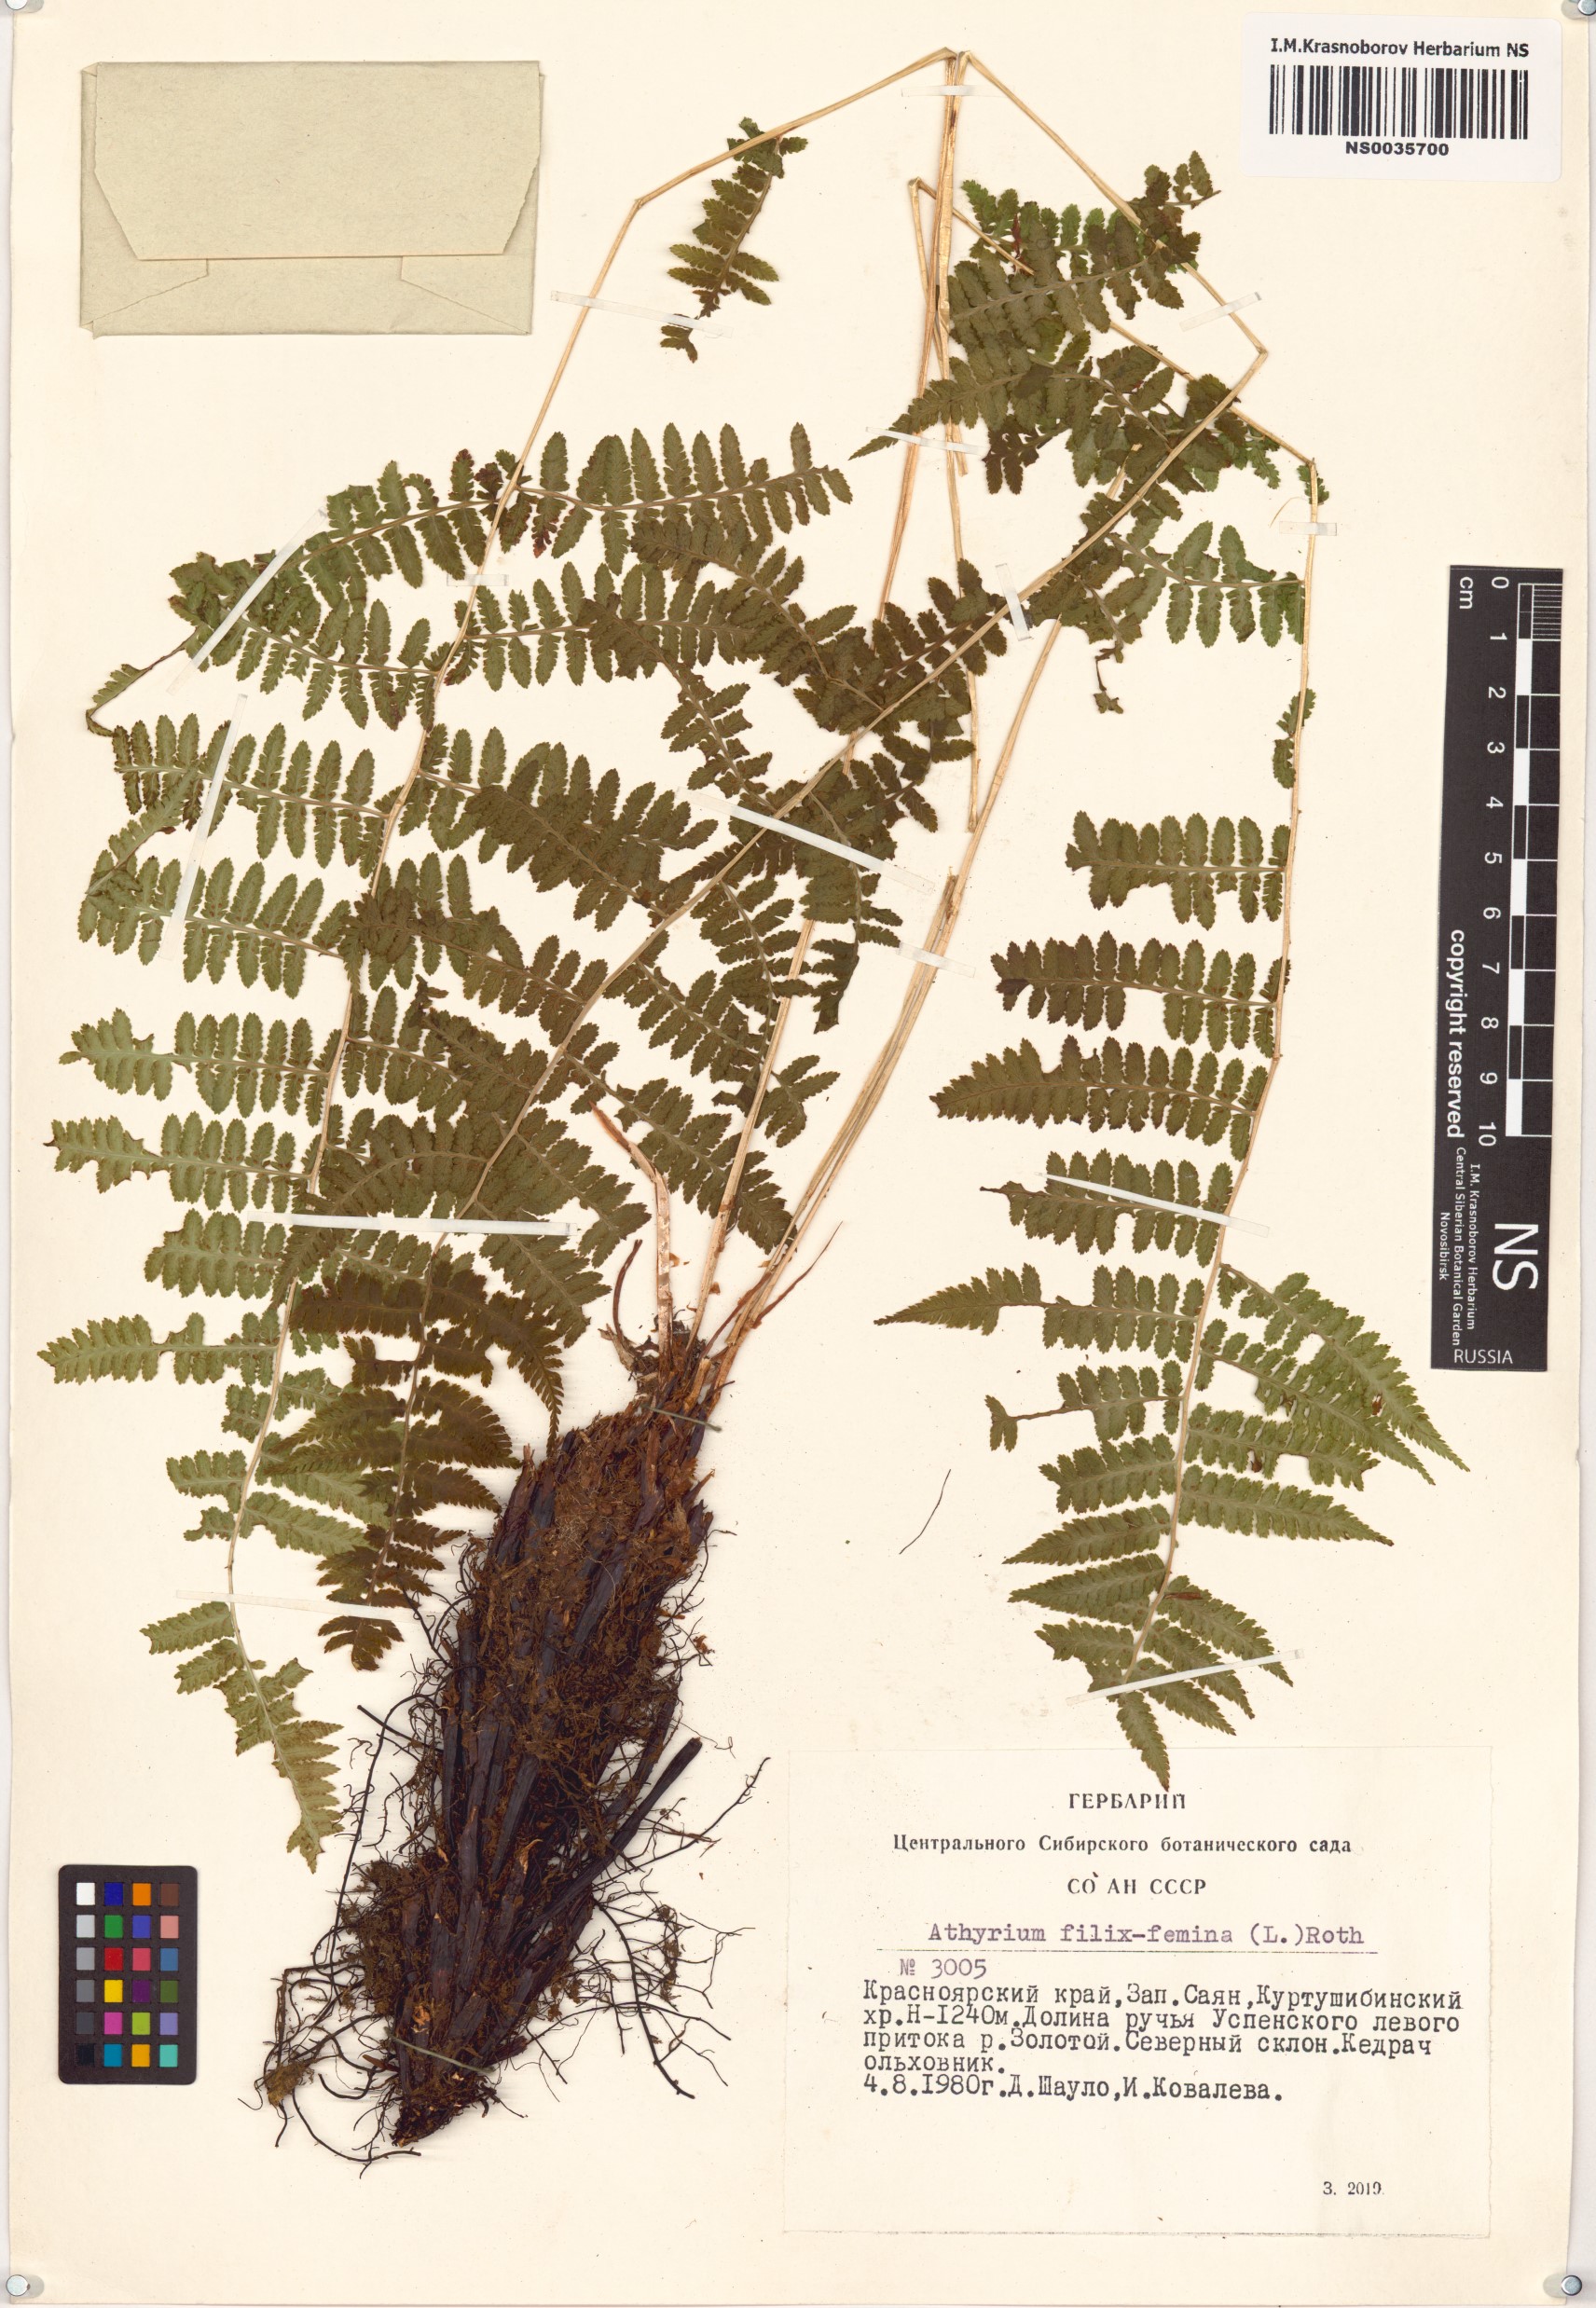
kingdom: Plantae
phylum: Tracheophyta
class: Polypodiopsida
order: Polypodiales
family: Athyriaceae
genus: Athyrium
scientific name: Athyrium filix-femina
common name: Lady fern
